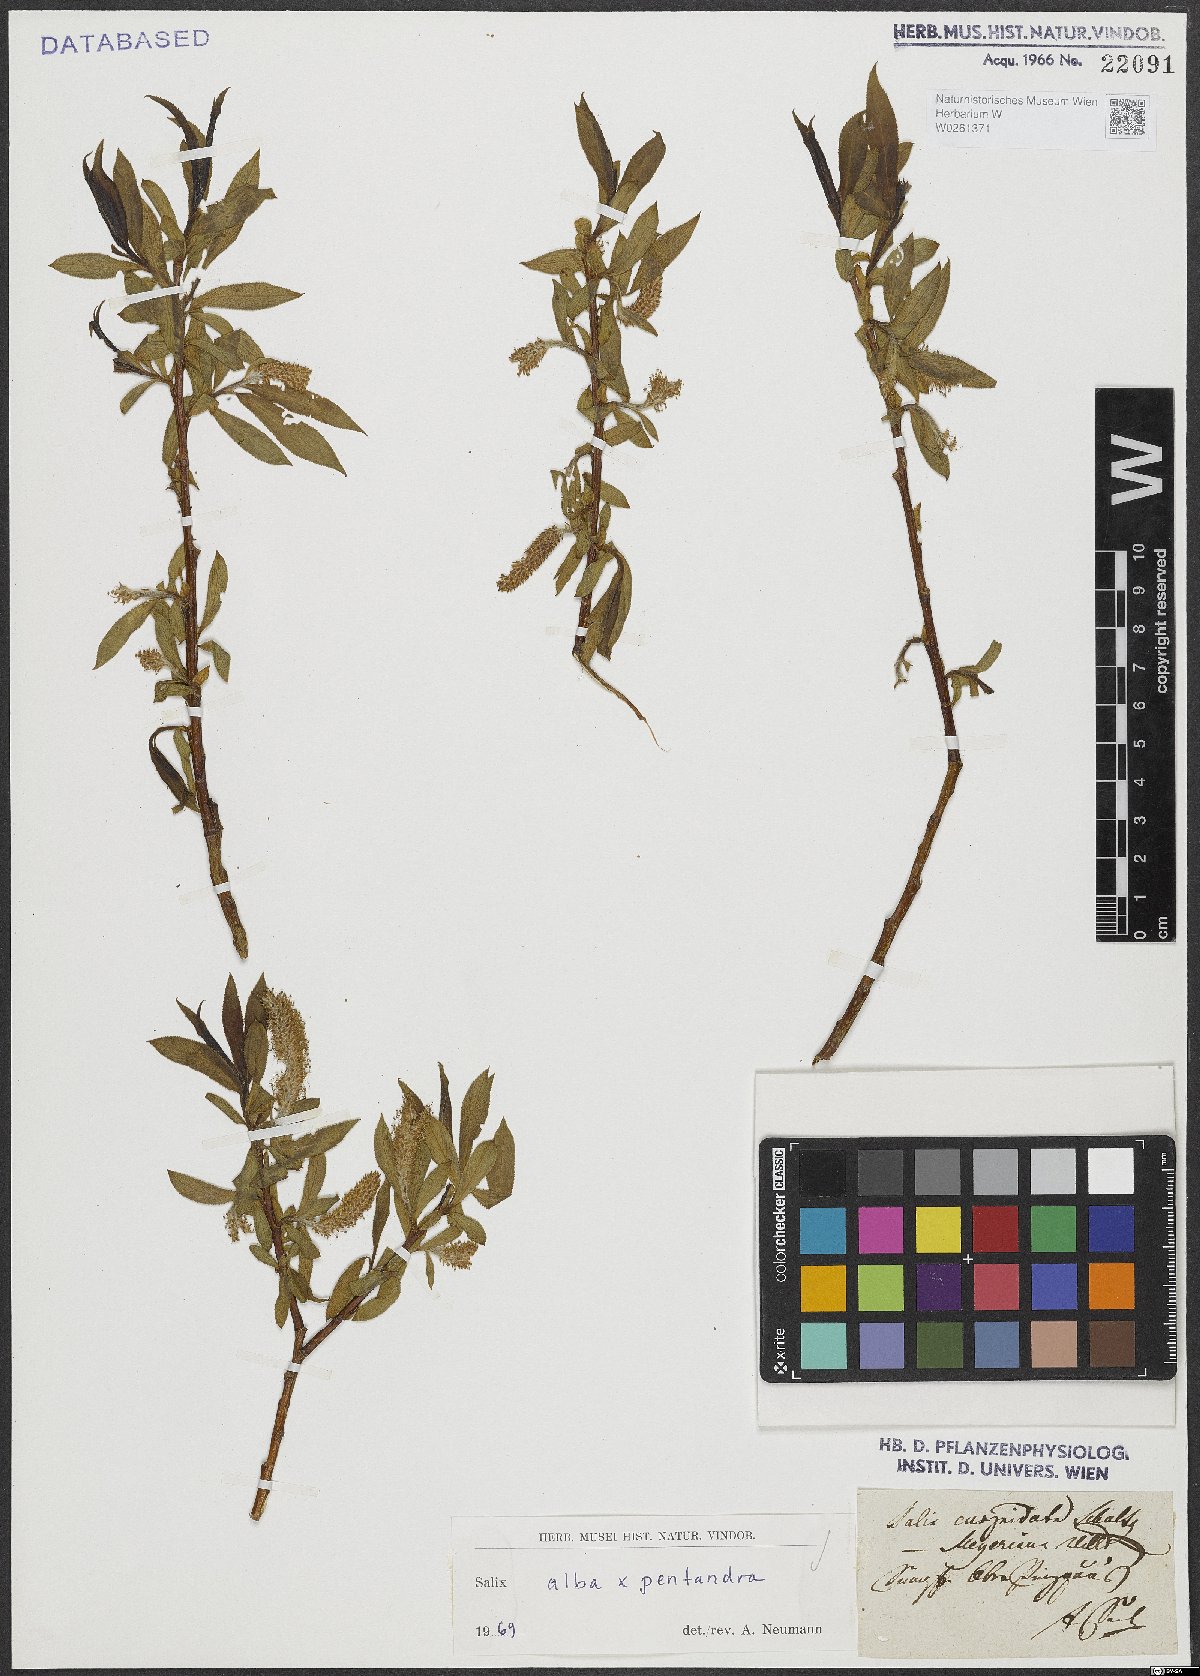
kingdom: Plantae
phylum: Tracheophyta
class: Magnoliopsida
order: Malpighiales
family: Salicaceae
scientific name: Salicaceae
